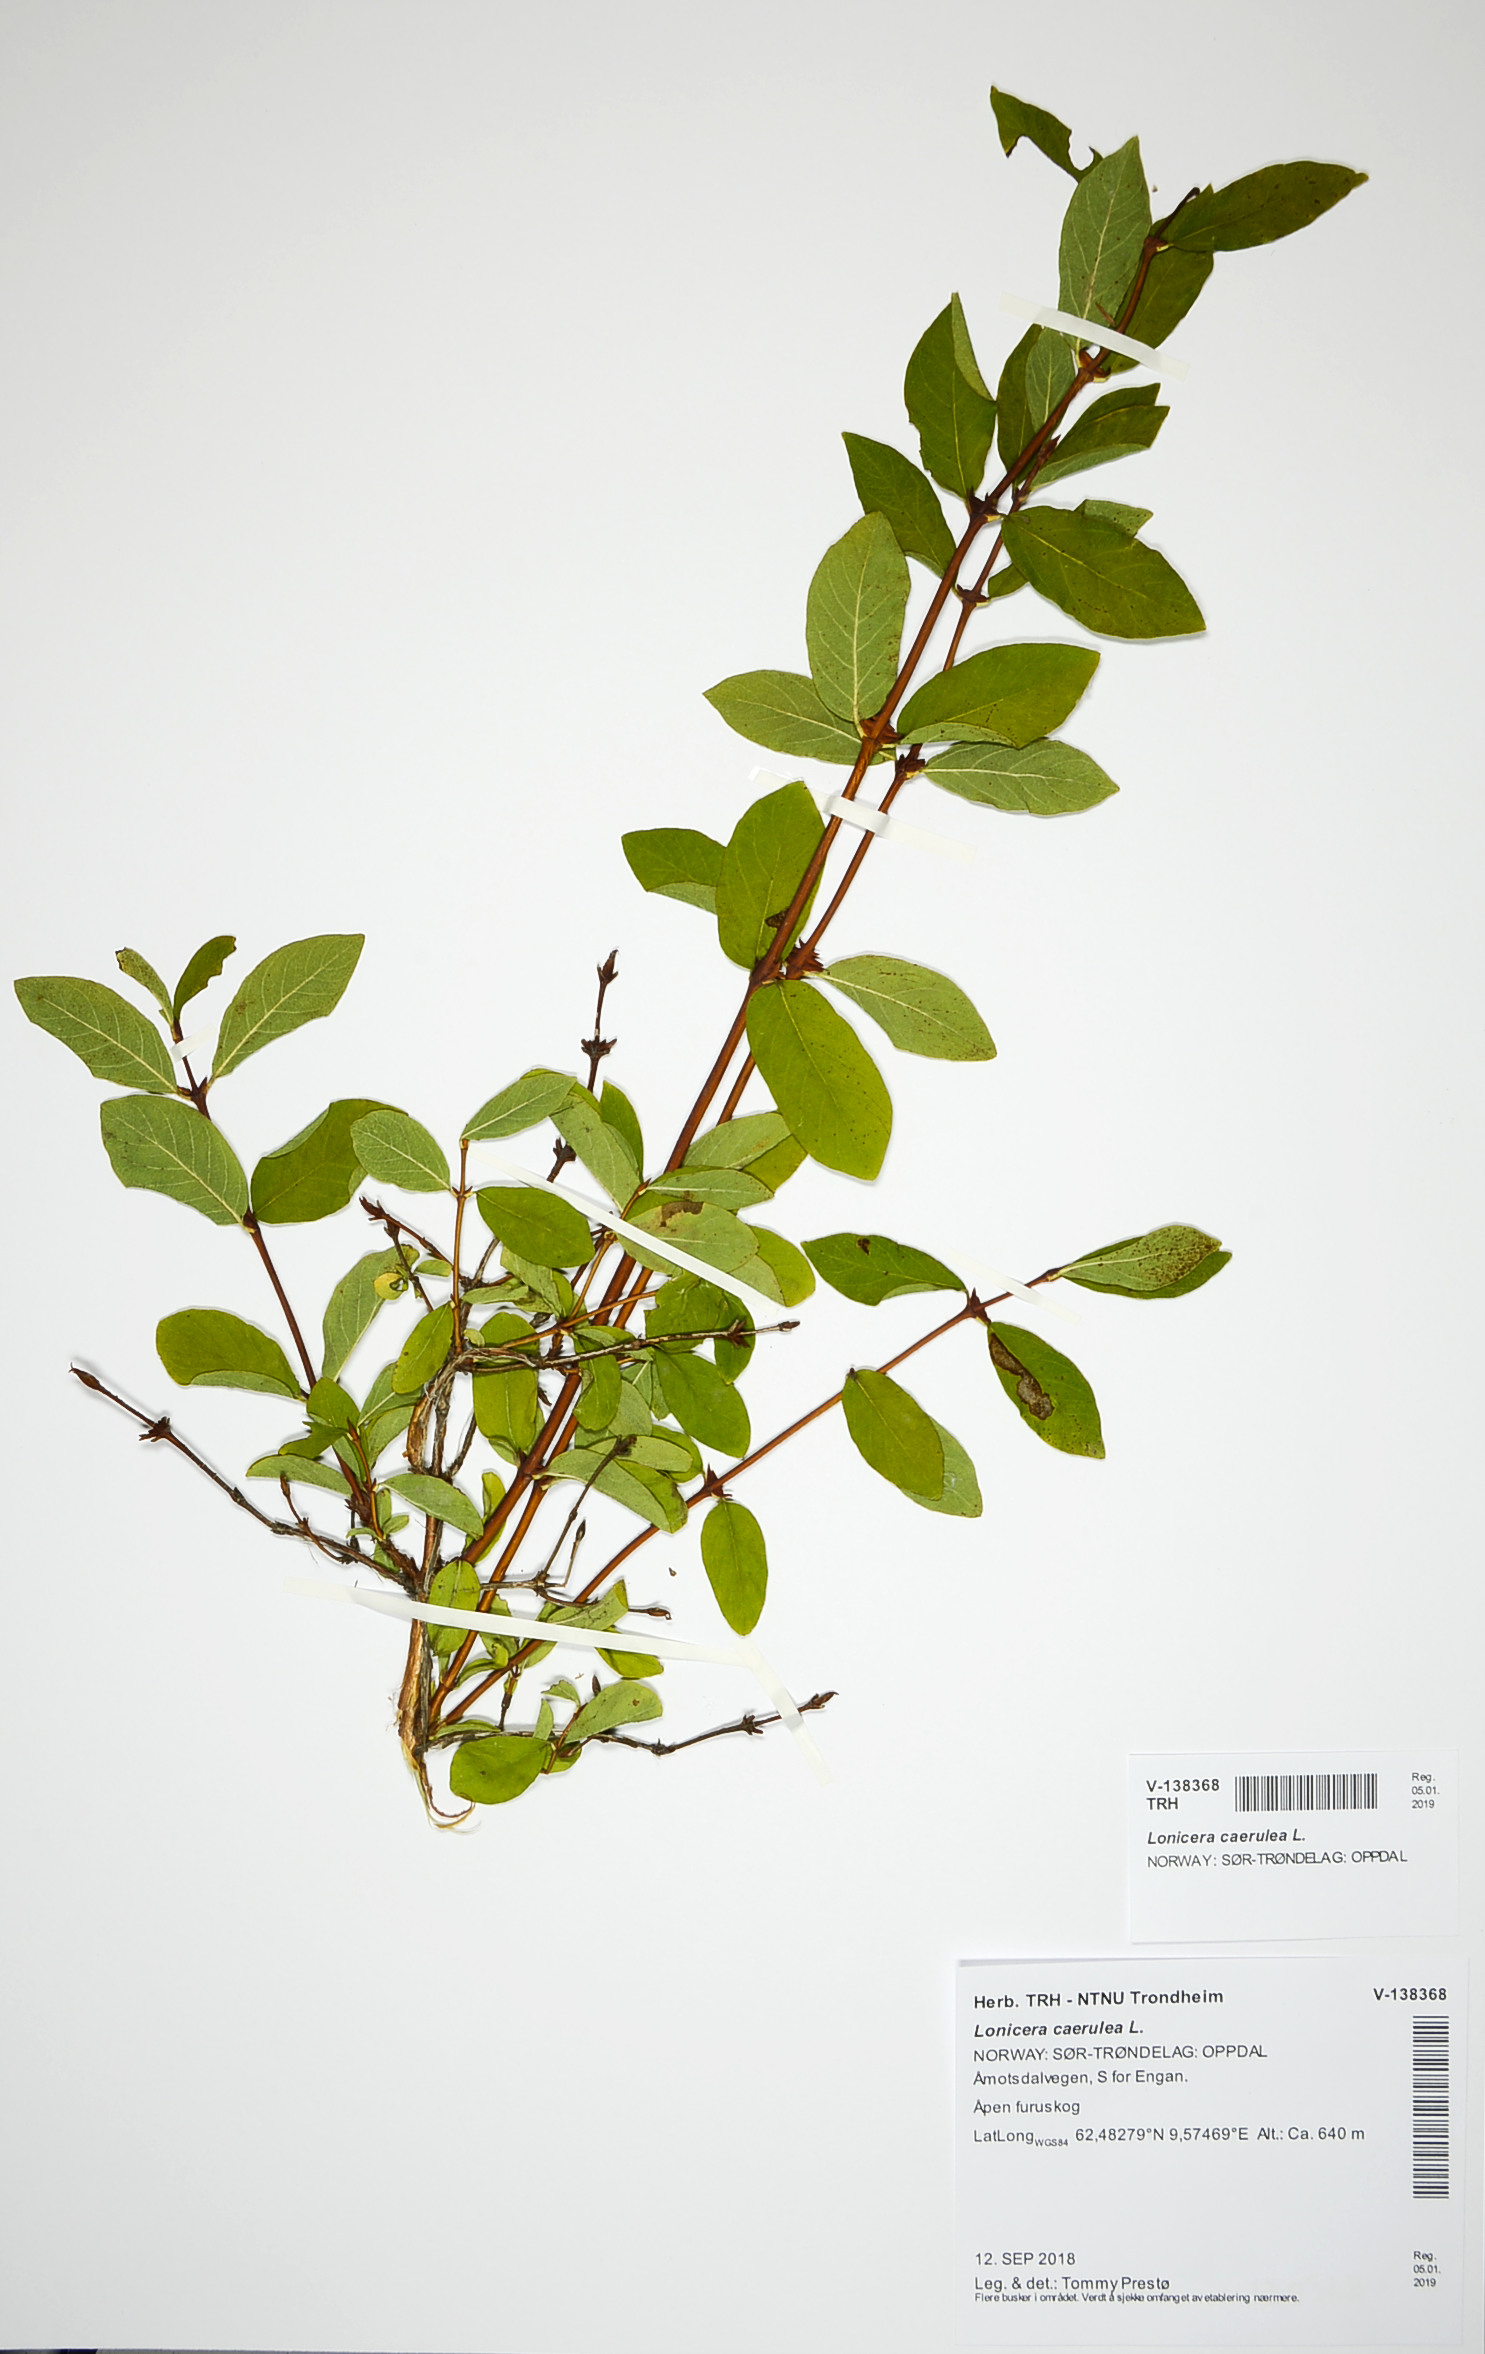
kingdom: Plantae
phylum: Tracheophyta
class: Magnoliopsida
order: Dipsacales
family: Caprifoliaceae
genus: Lonicera
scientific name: Lonicera caerulea
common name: Blue honeysuckle
